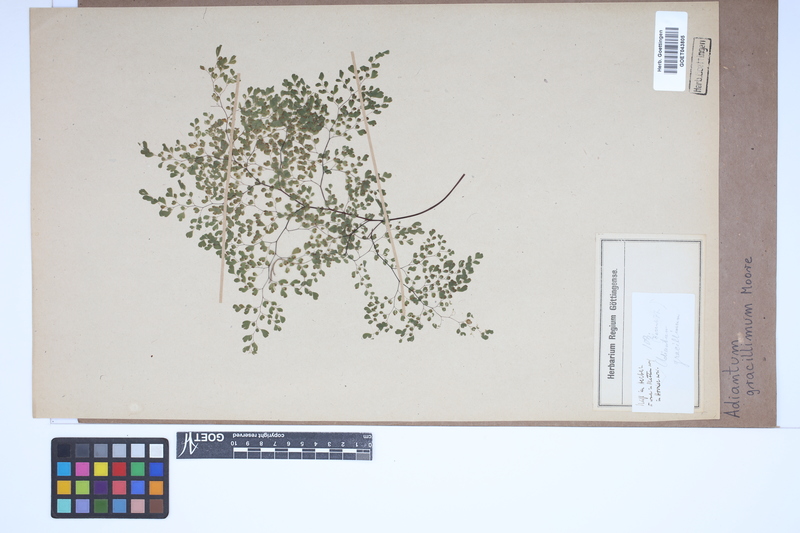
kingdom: Plantae
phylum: Tracheophyta
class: Polypodiopsida
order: Polypodiales
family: Pteridaceae
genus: Adiantum
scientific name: Adiantum gracillimum
